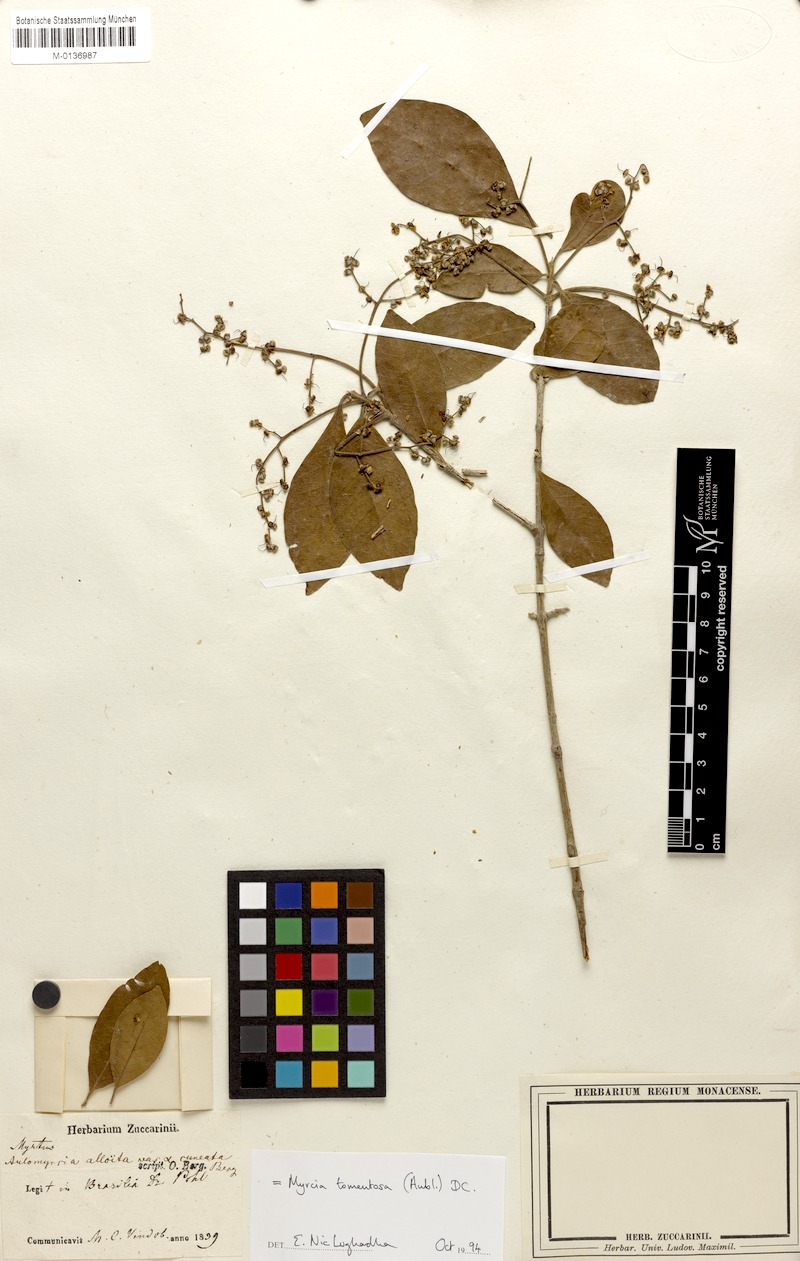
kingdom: Plantae
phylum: Tracheophyta
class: Magnoliopsida
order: Myrtales
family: Myrtaceae
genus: Myrcia
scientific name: Myrcia tomentosa
